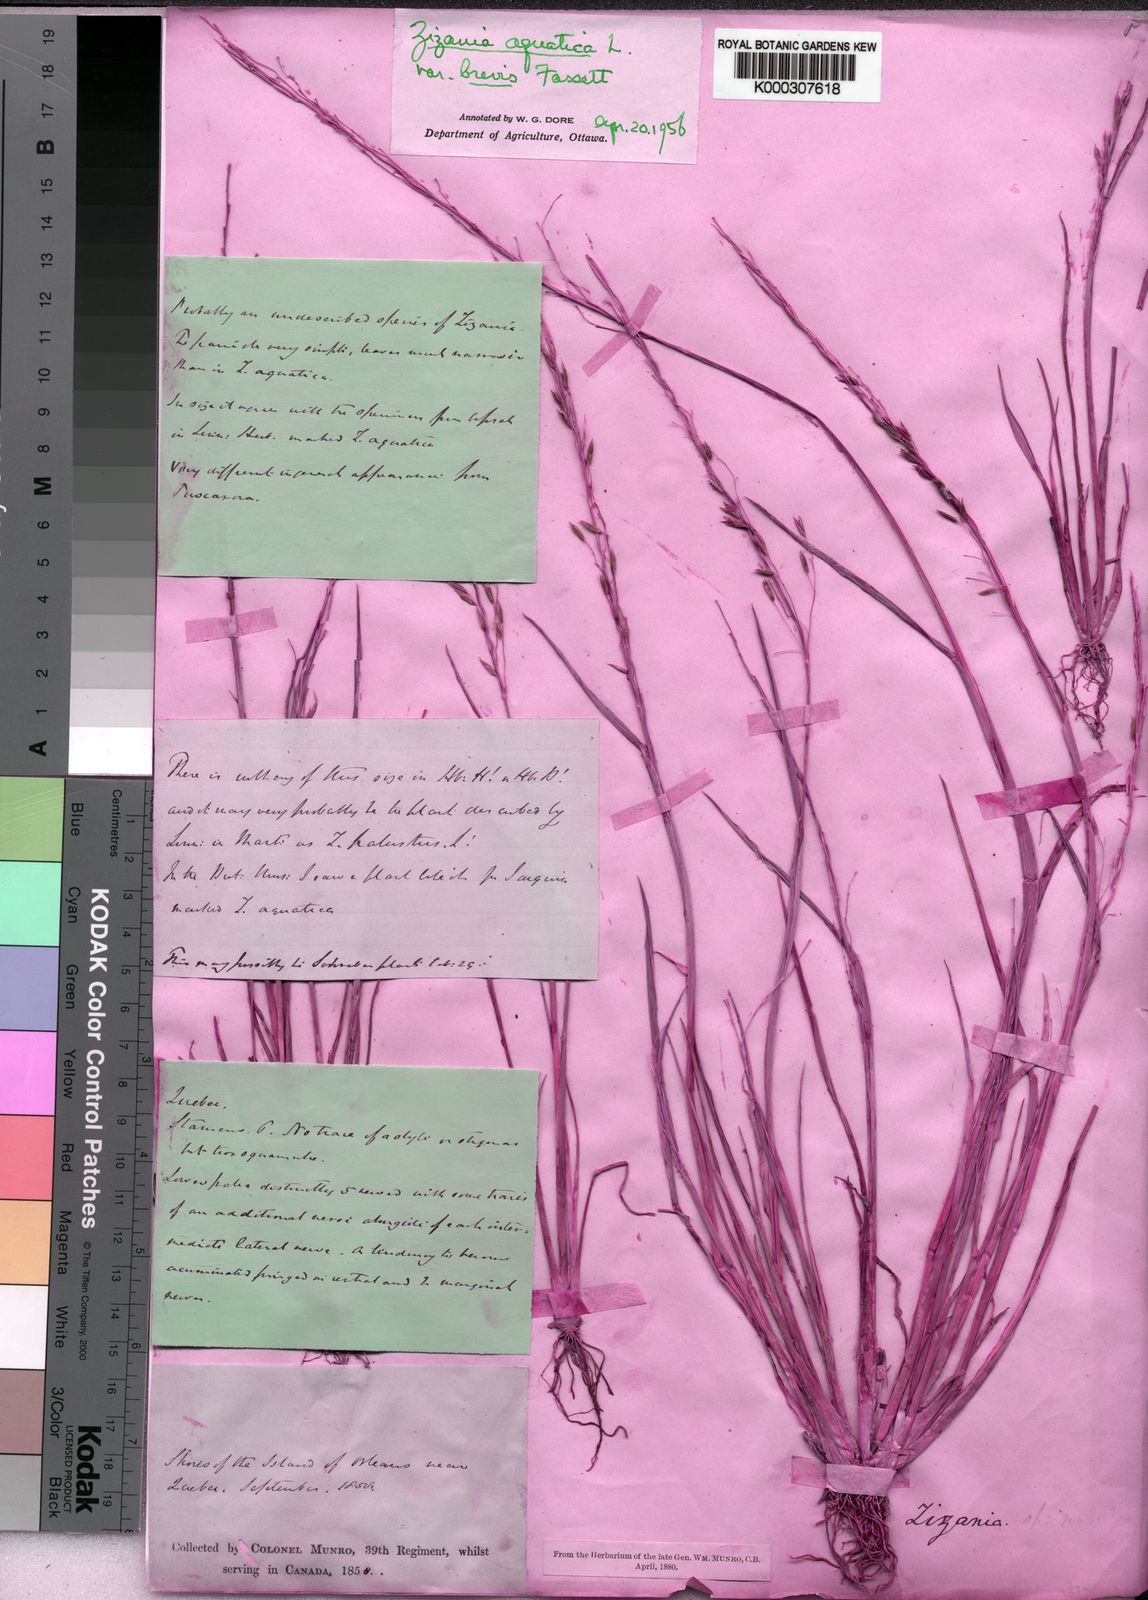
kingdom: Plantae
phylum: Tracheophyta
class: Liliopsida
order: Poales
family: Poaceae
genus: Zizania
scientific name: Zizania aquatica
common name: Annual wildrice
